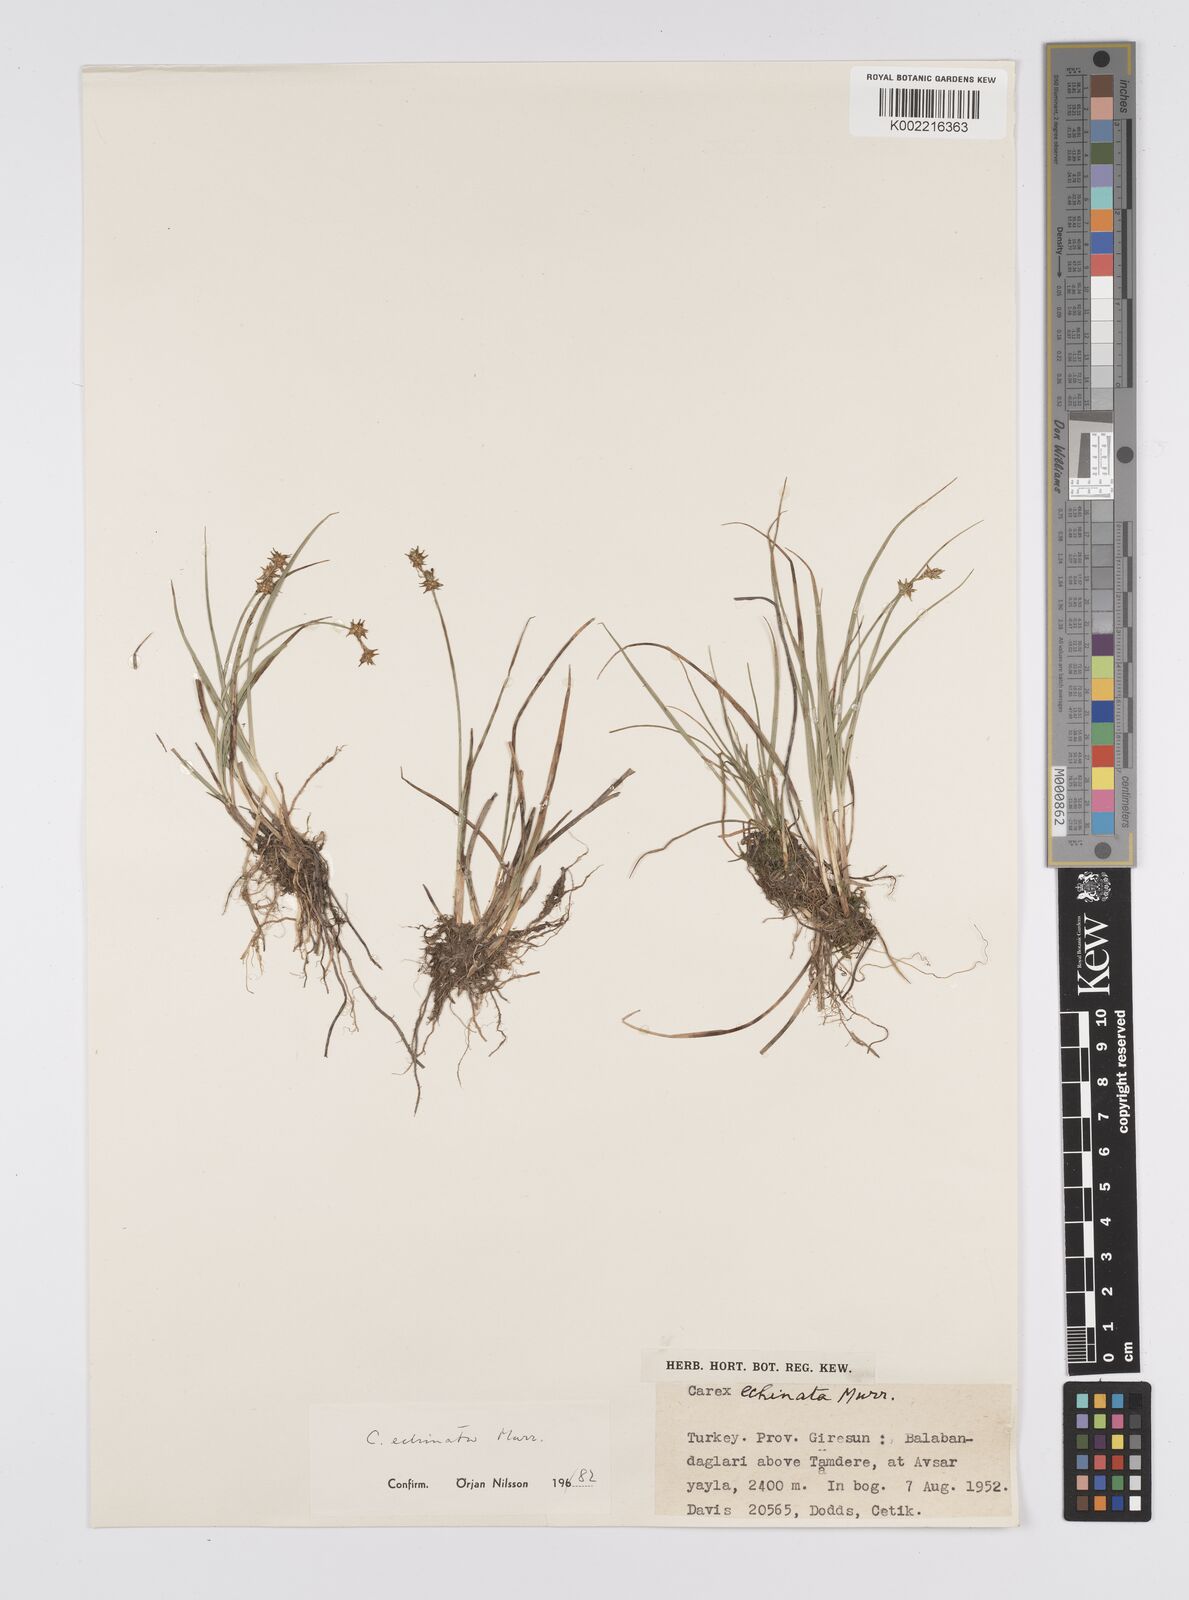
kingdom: Plantae
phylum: Tracheophyta
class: Liliopsida
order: Poales
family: Cyperaceae
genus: Carex
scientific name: Carex echinata
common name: Star sedge
